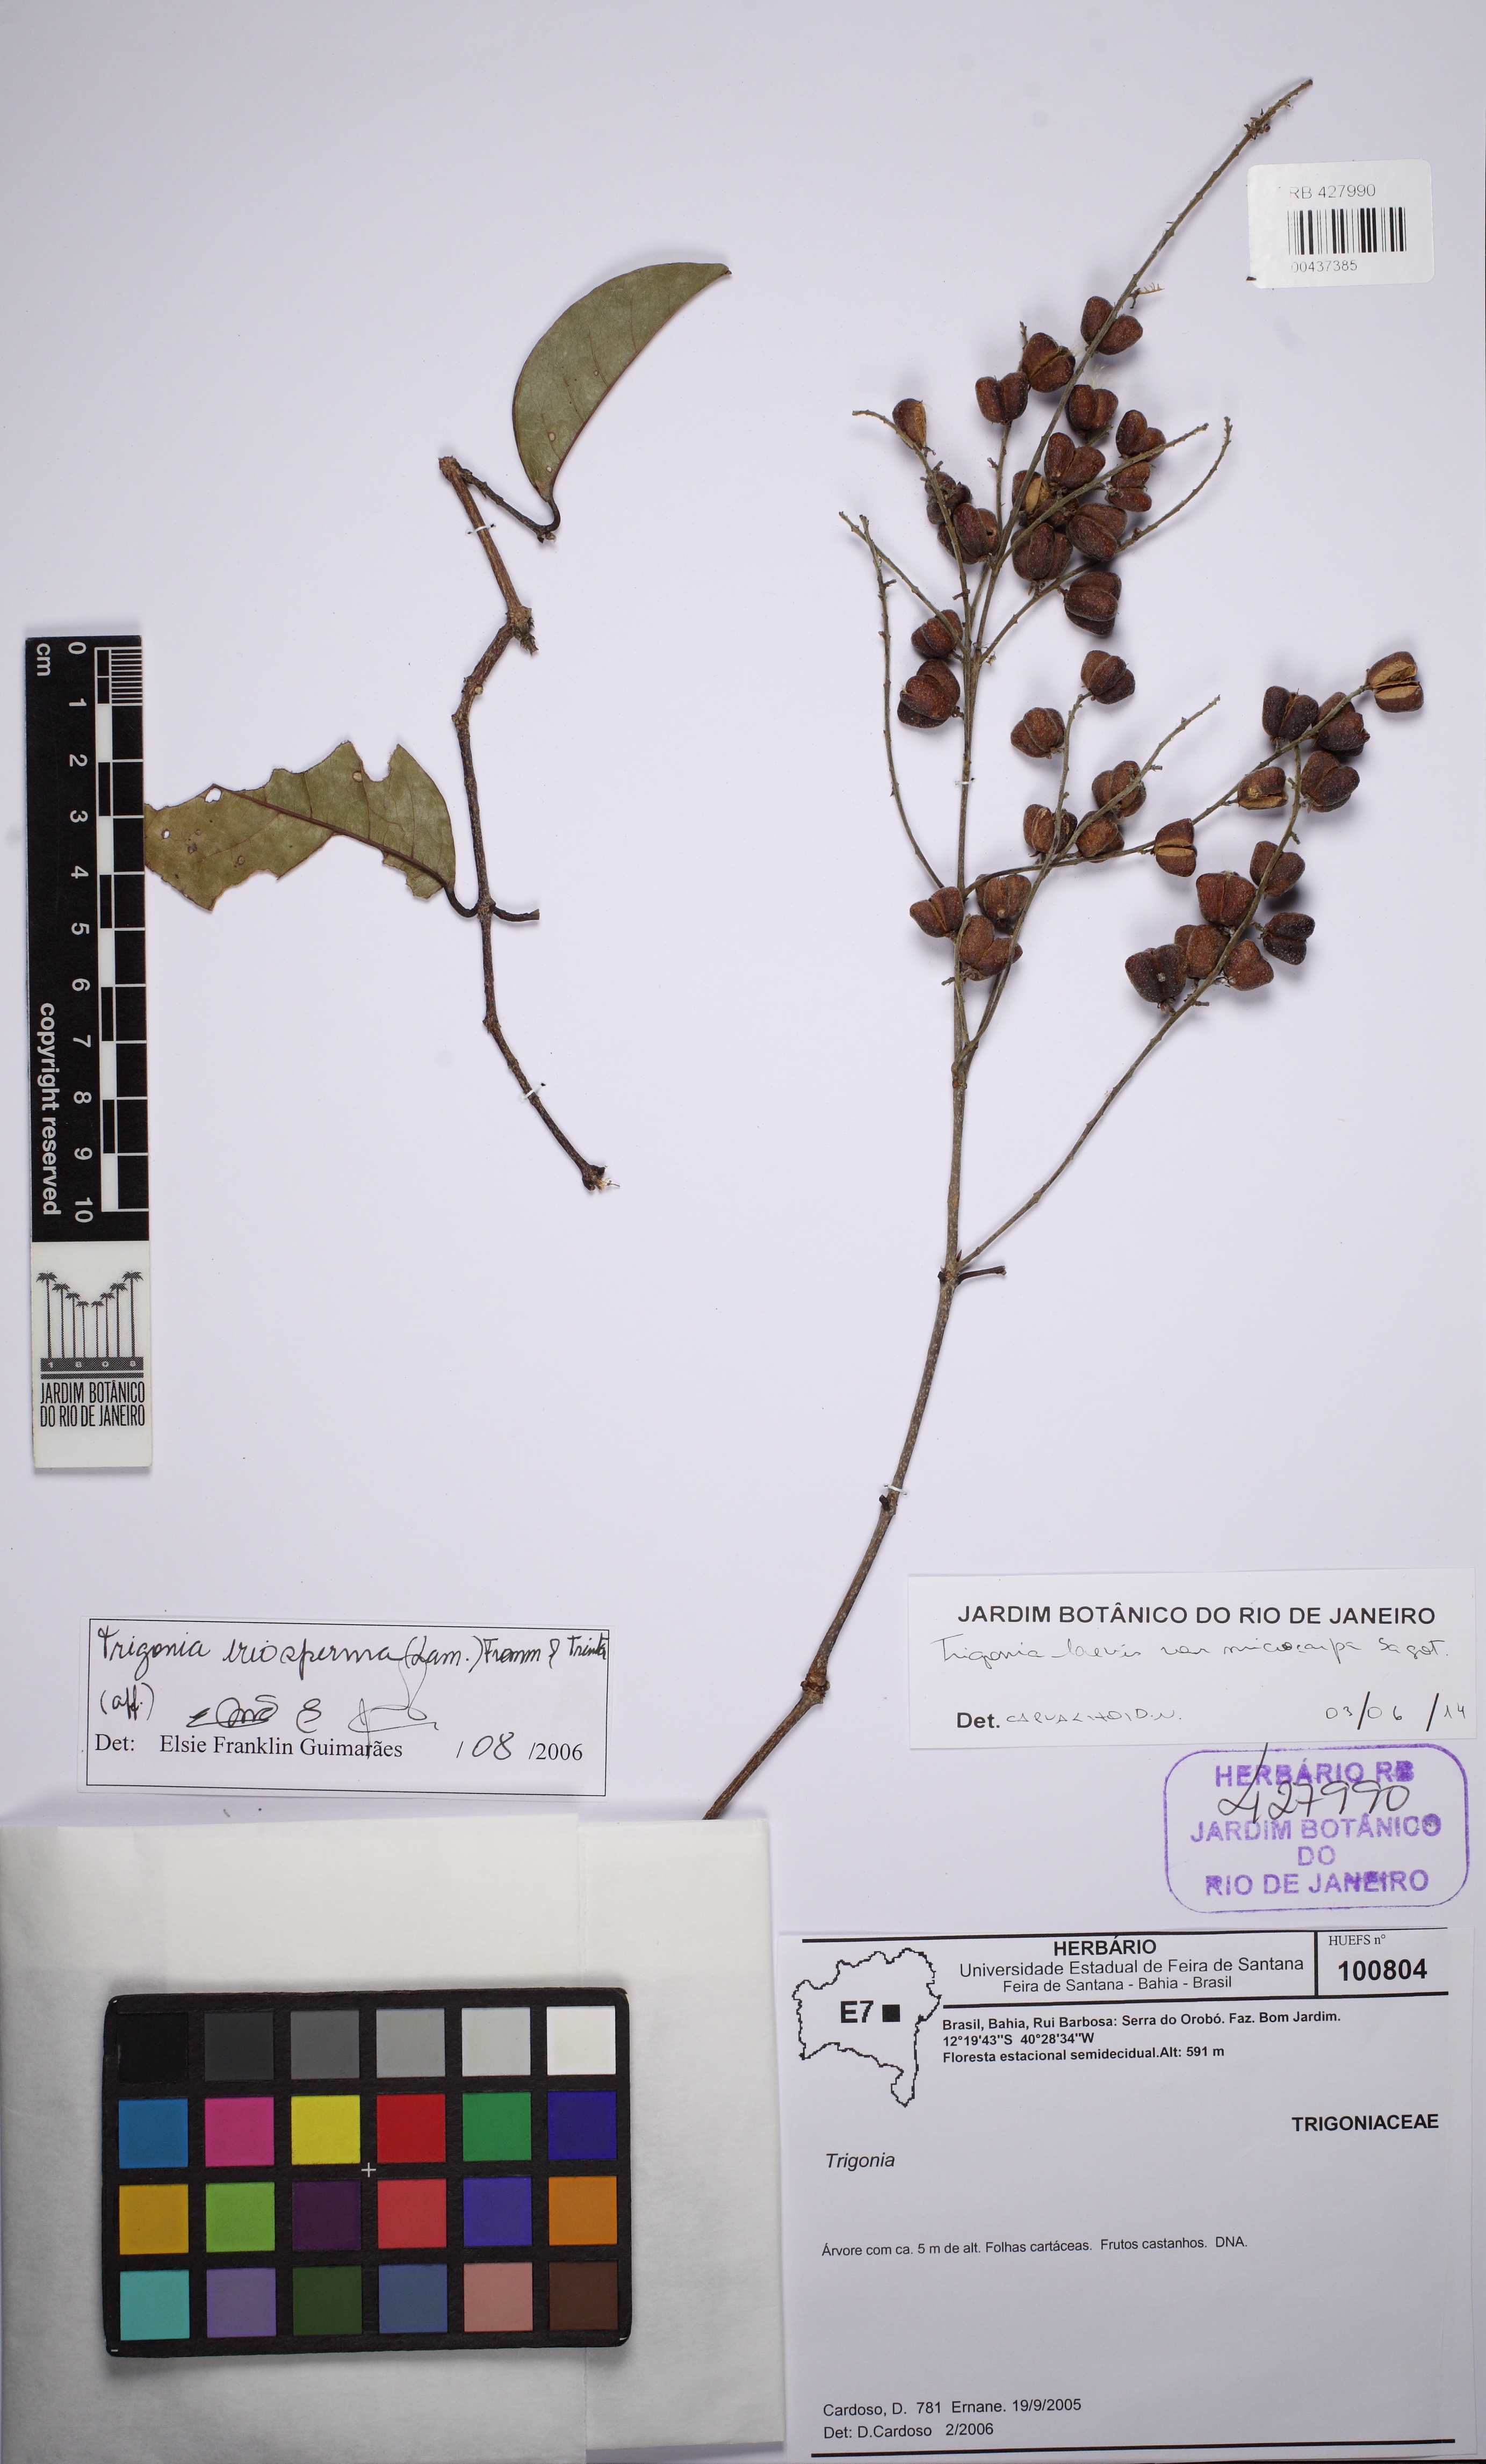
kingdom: Plantae
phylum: Tracheophyta
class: Magnoliopsida
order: Malpighiales
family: Trigoniaceae
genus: Trigonia
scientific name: Trigonia microcarpa
